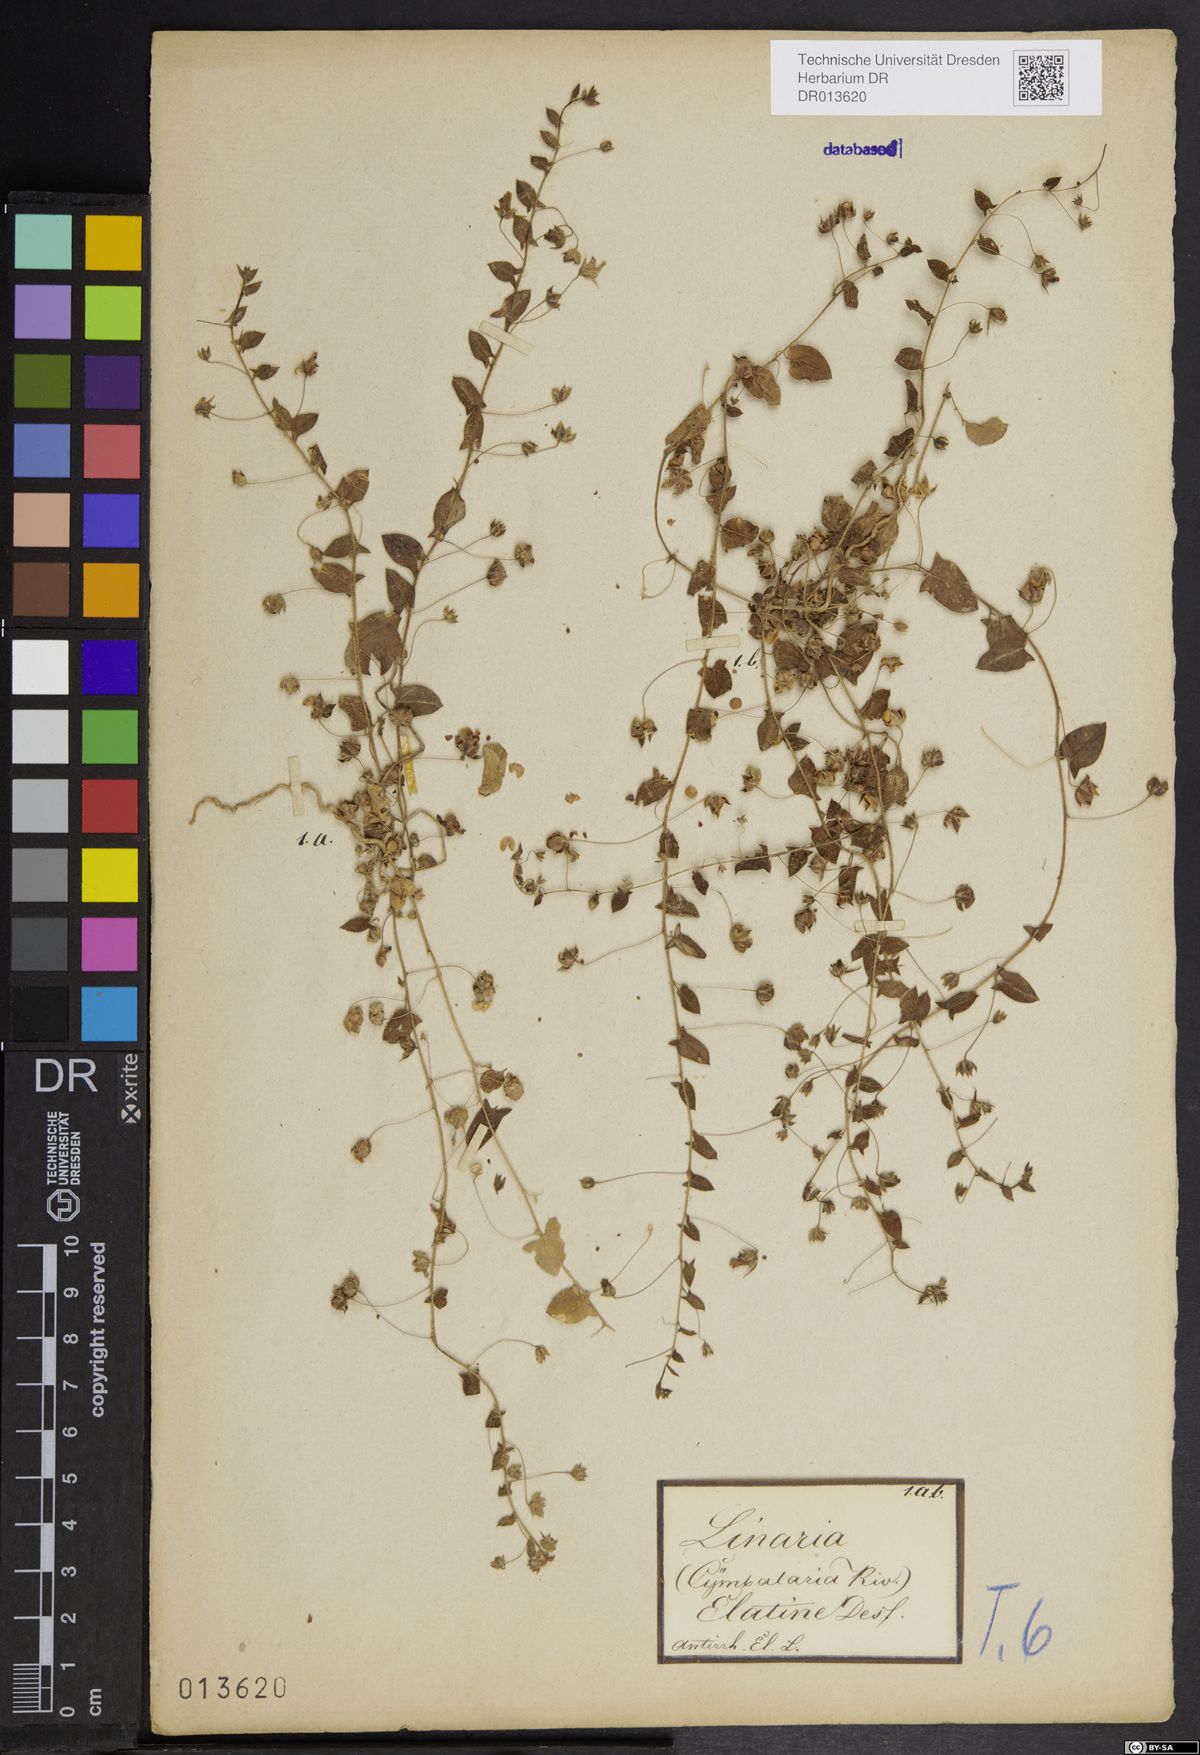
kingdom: Plantae
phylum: Tracheophyta
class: Magnoliopsida
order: Lamiales
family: Plantaginaceae
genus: Kickxia
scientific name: Kickxia elatine
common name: Sharp-leaved fluellen
